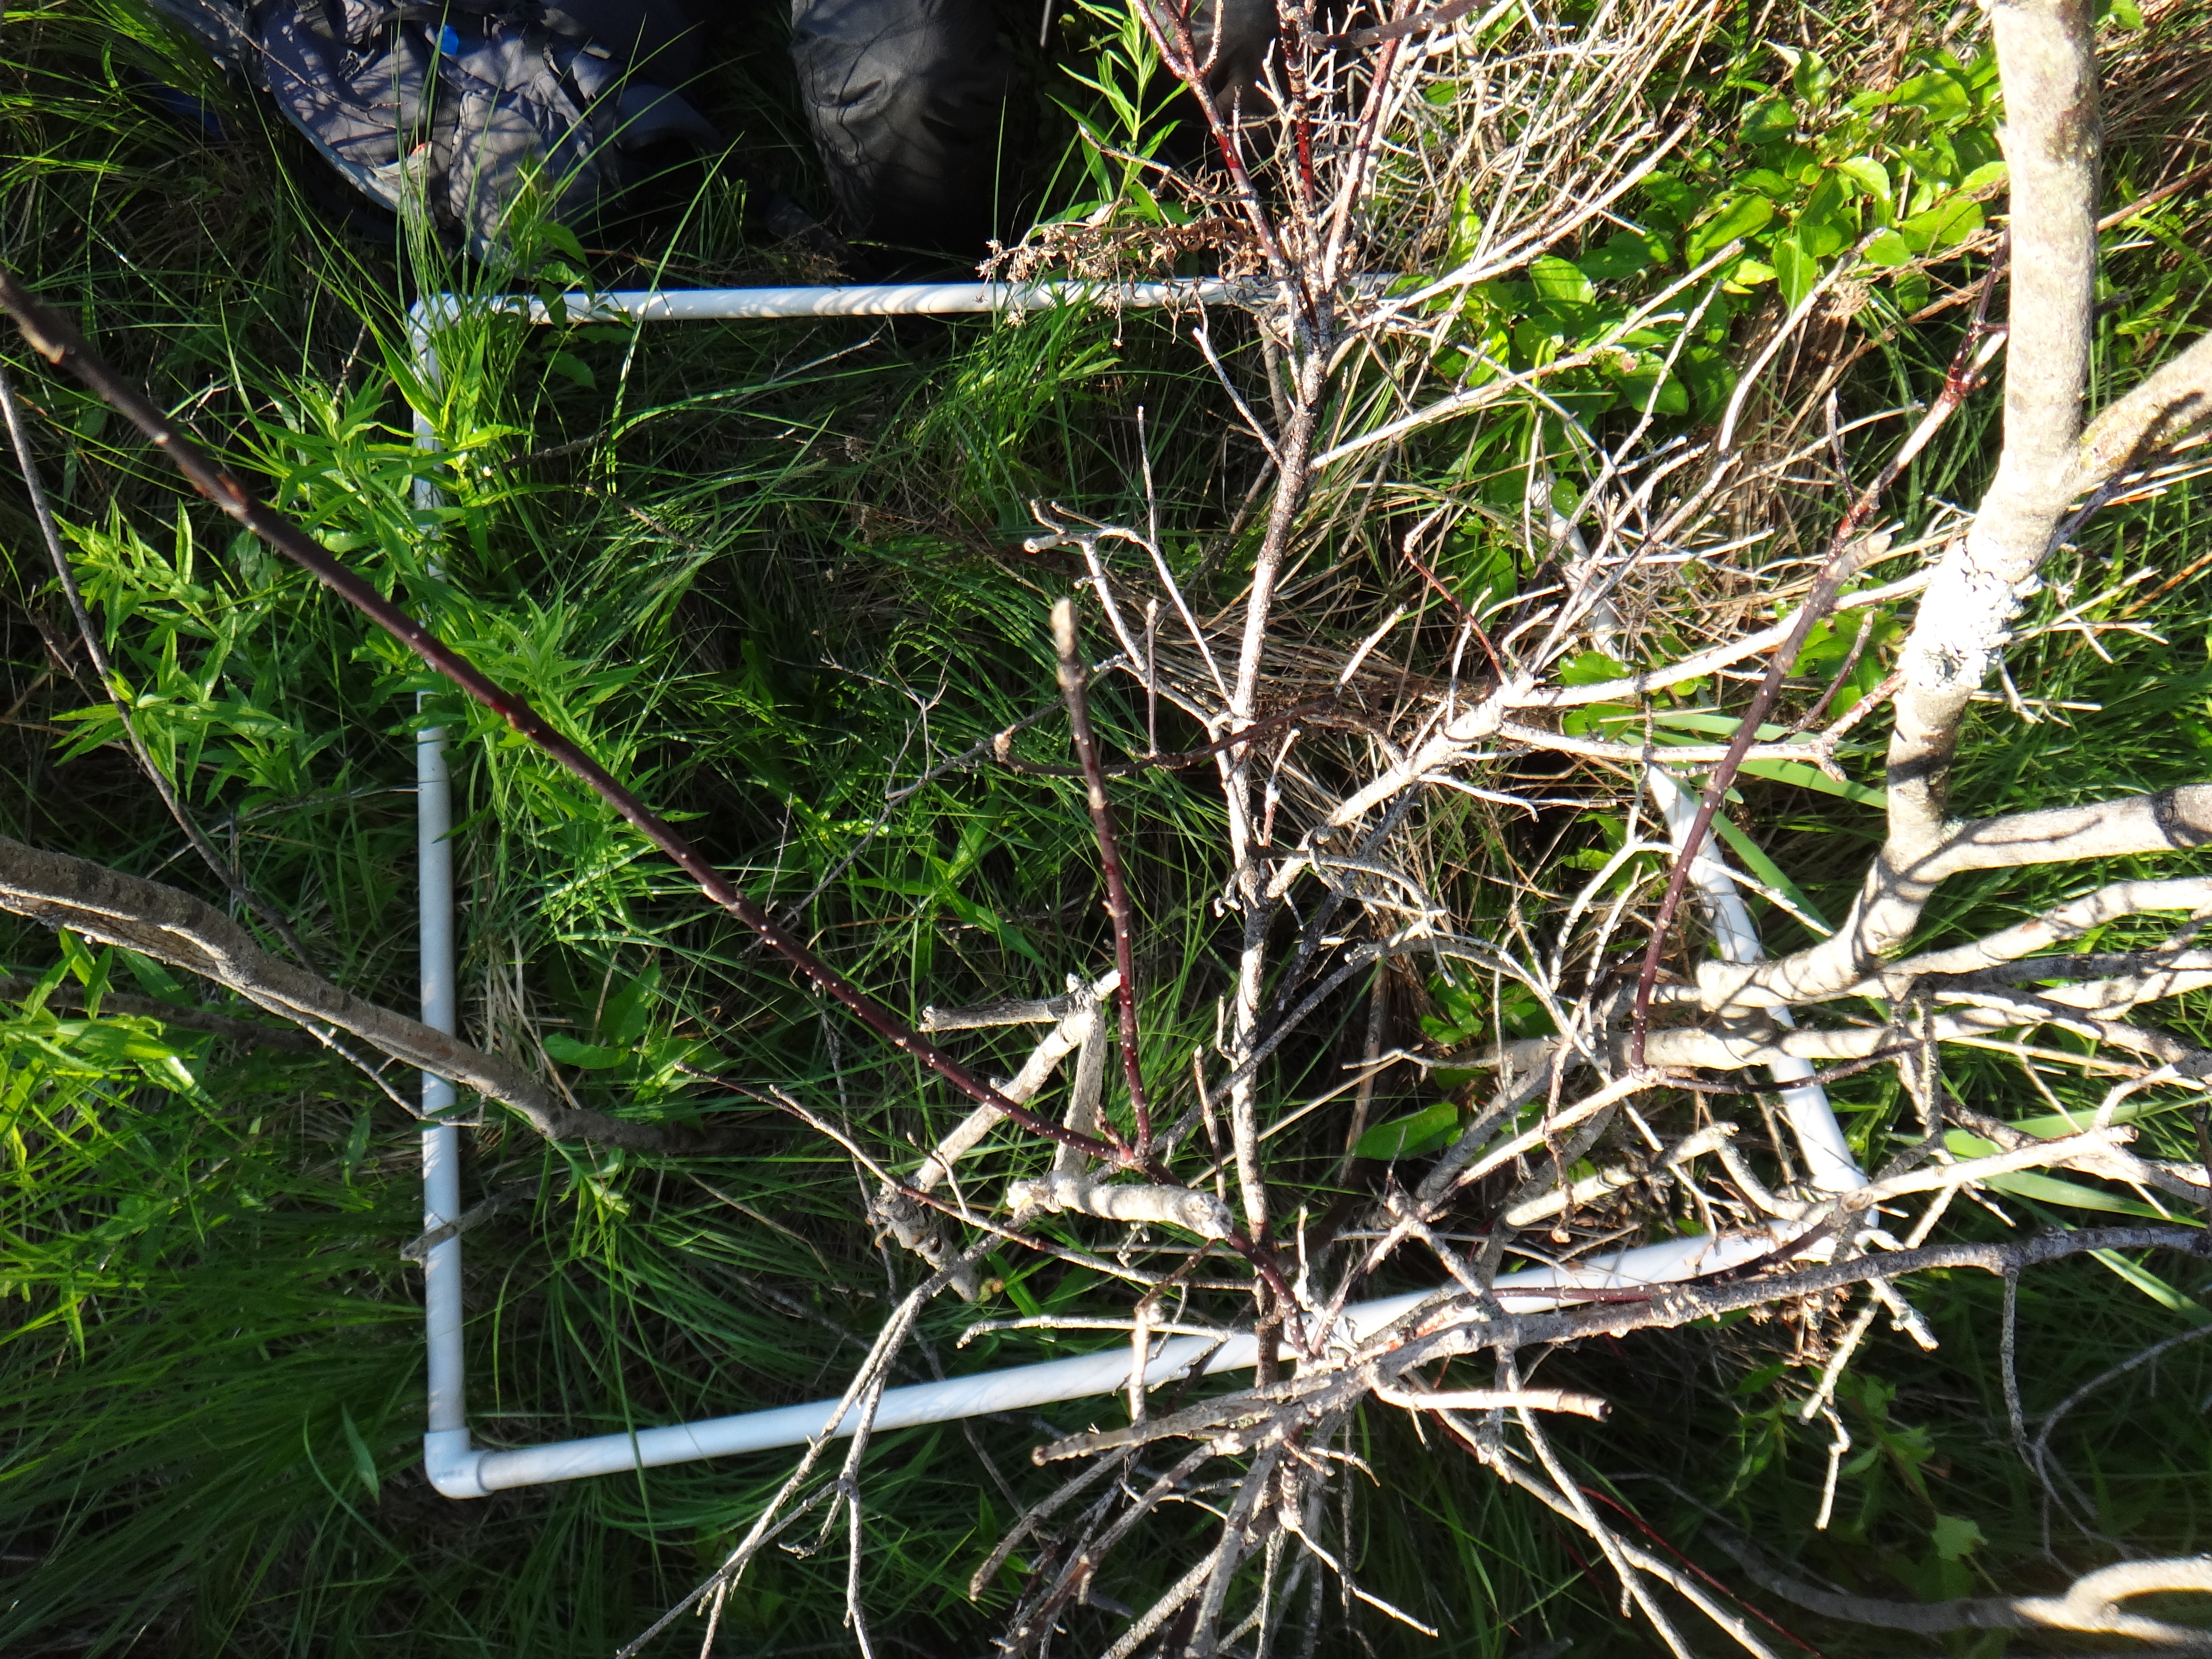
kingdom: Plantae
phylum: Tracheophyta
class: Magnoliopsida
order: Asterales
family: Asteraceae
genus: Symphyotrichum
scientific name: Symphyotrichum puniceum
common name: Bog aster
